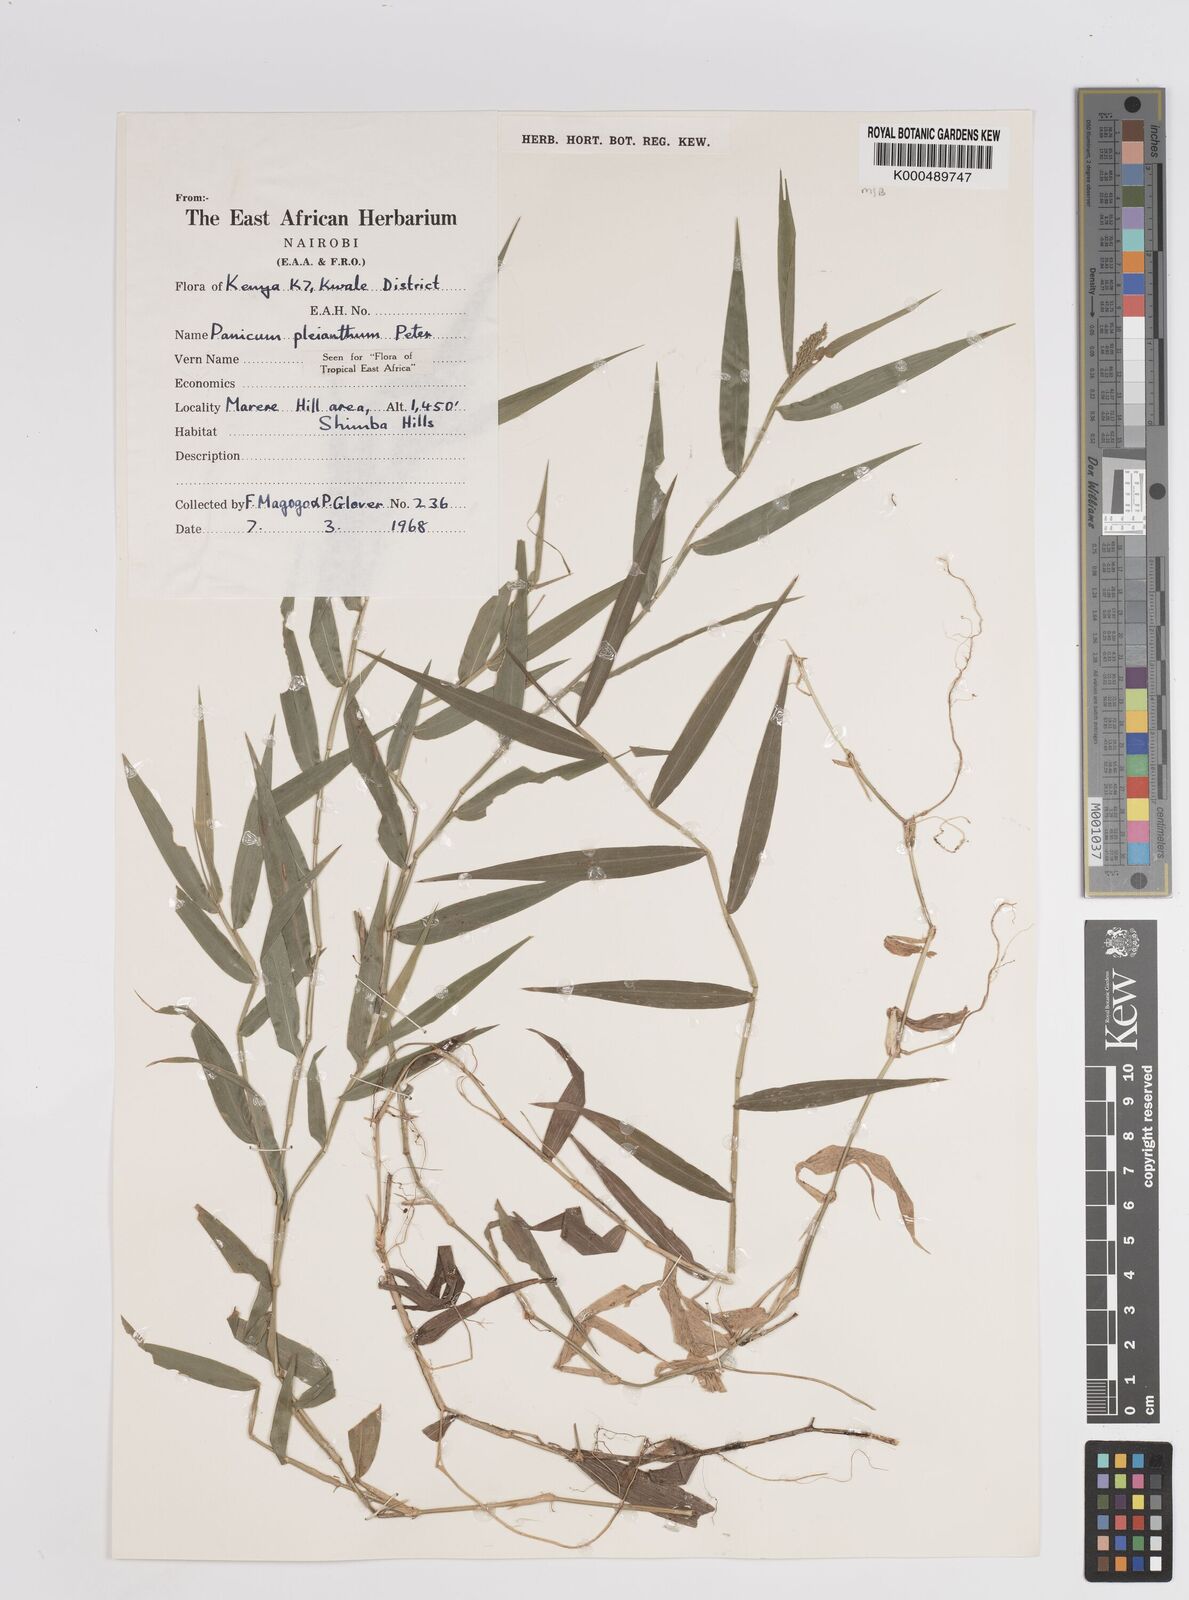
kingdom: Plantae
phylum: Tracheophyta
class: Liliopsida
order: Poales
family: Poaceae
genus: Panicum
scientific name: Panicum pleianthum
